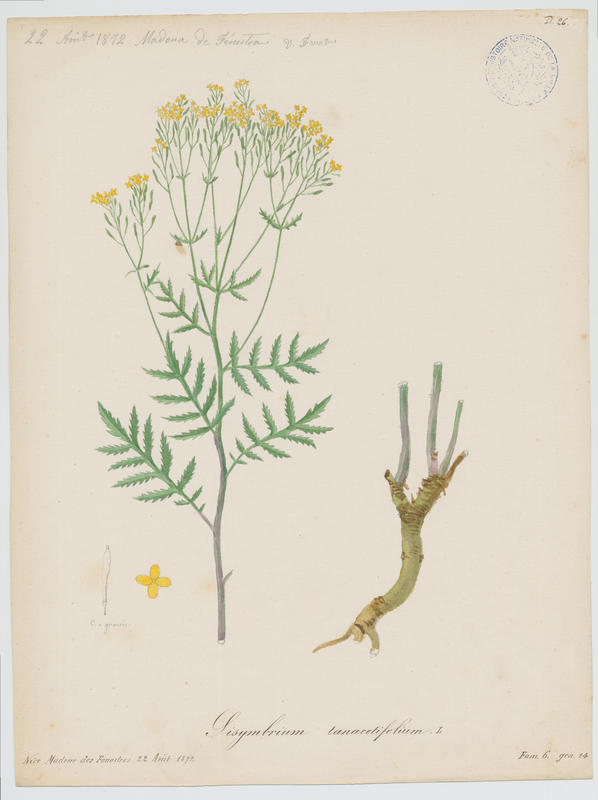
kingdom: Plantae
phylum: Tracheophyta
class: Magnoliopsida
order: Brassicales
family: Brassicaceae
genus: Descurainia
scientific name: Descurainia tanacetifolia
